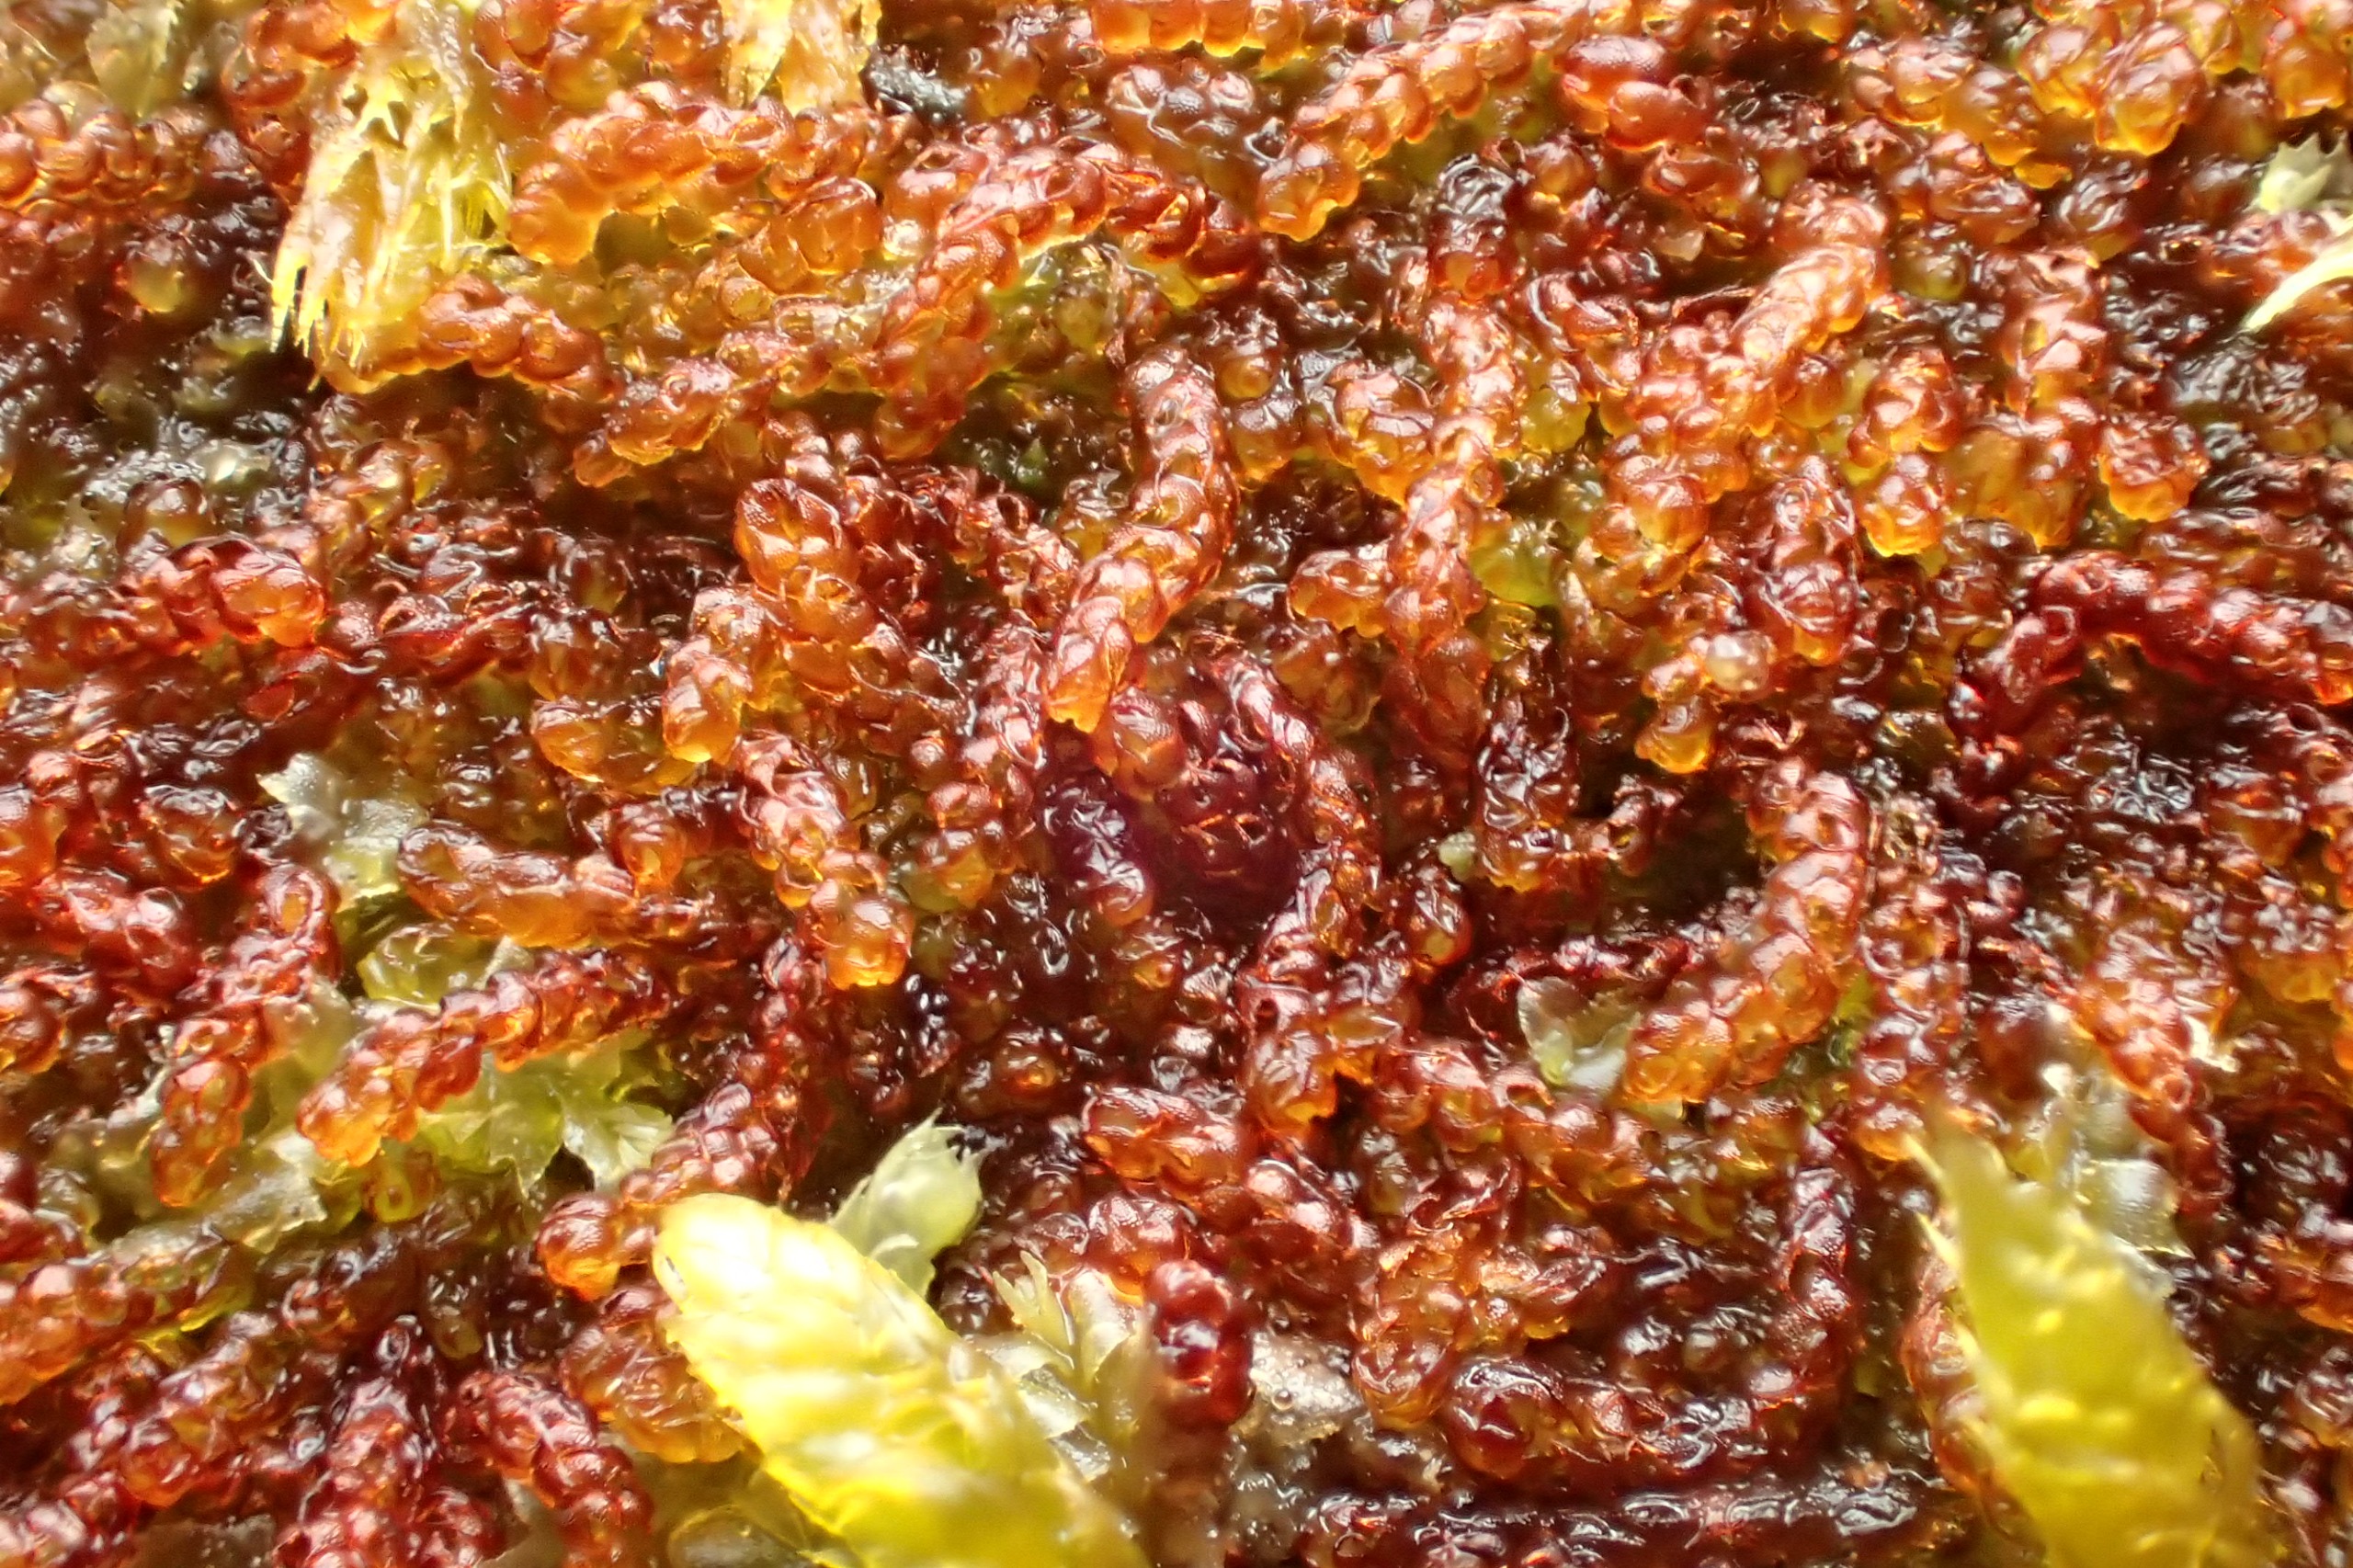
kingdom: Plantae
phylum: Marchantiophyta
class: Jungermanniopsida
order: Jungermanniales
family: Cephaloziaceae
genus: Nowellia
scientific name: Nowellia curvifolia
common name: Krumbladet stødmos
